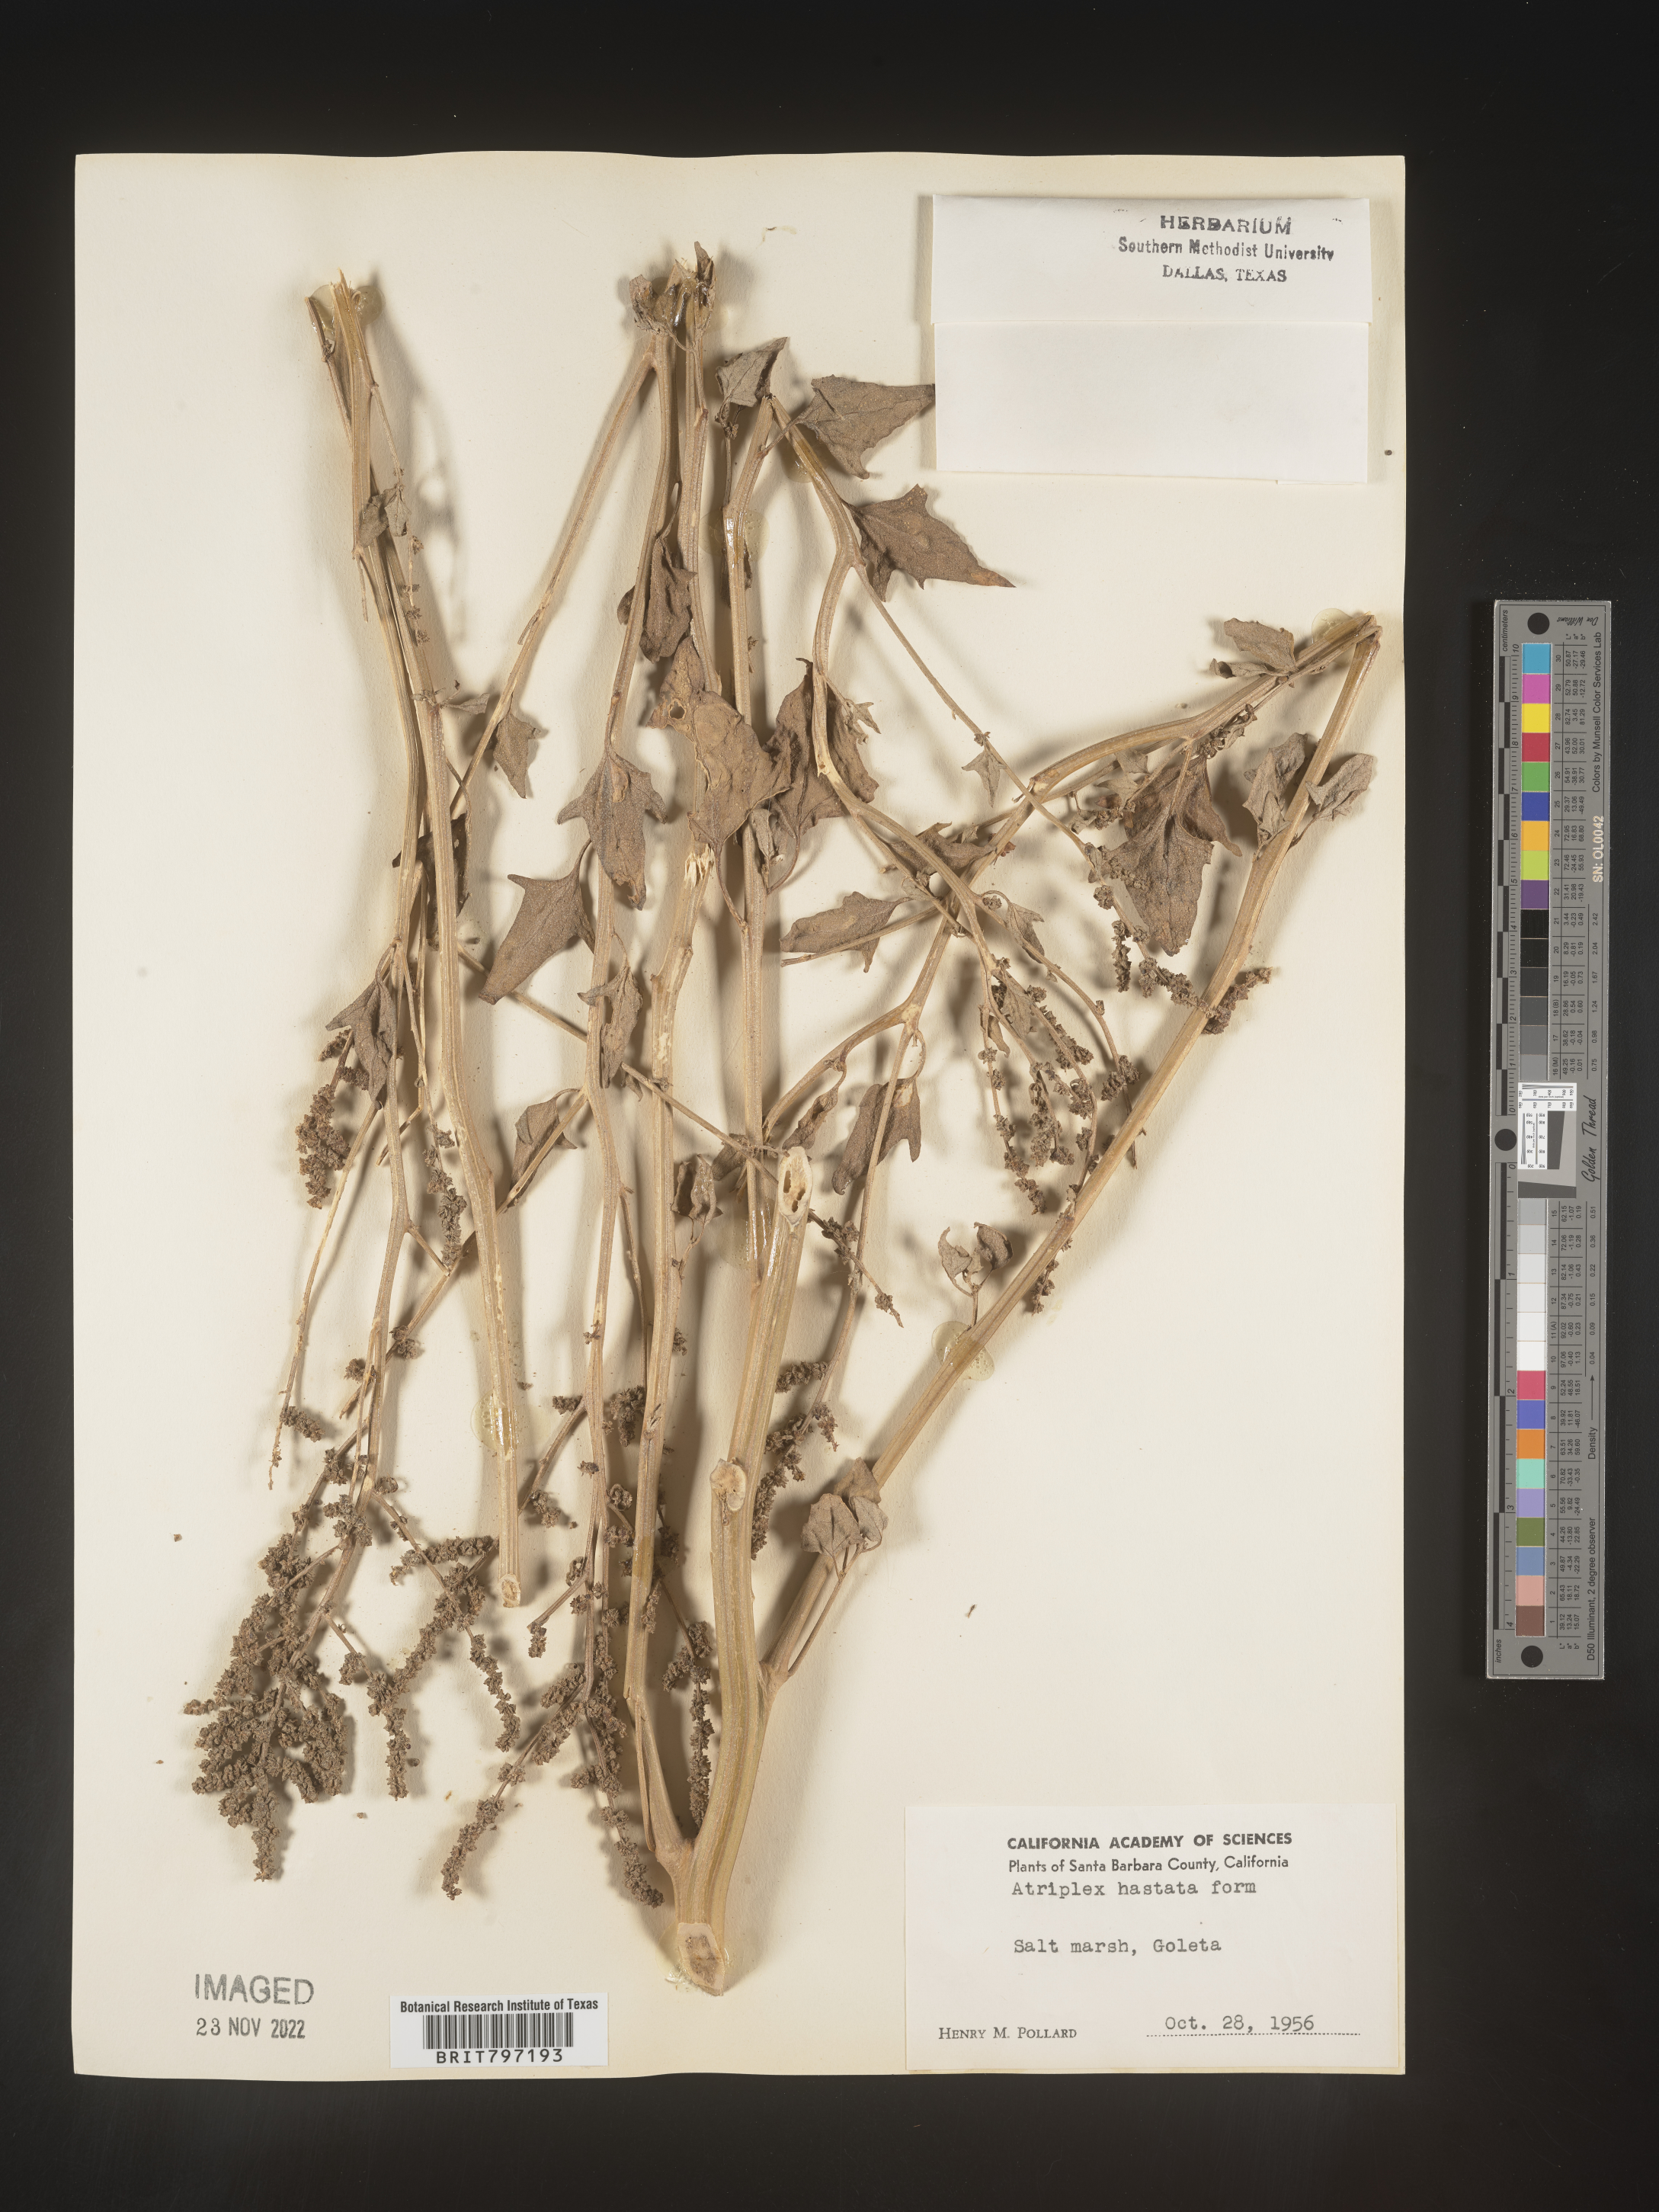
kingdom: Plantae
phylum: Tracheophyta
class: Magnoliopsida
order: Caryophyllales
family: Amaranthaceae
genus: Atriplex
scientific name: Atriplex
